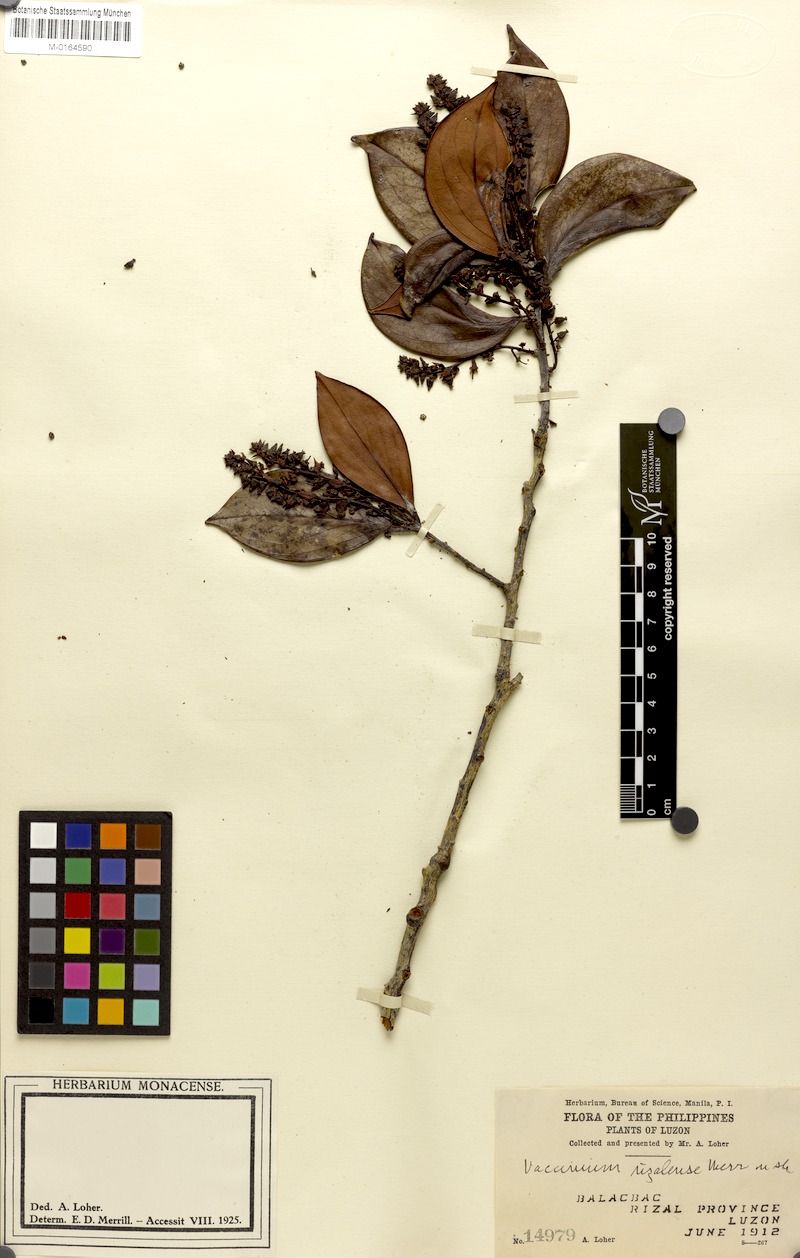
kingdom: Plantae
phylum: Tracheophyta
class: Magnoliopsida
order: Ericales
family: Ericaceae
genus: Vaccinium
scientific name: Vaccinium platyphyllum
